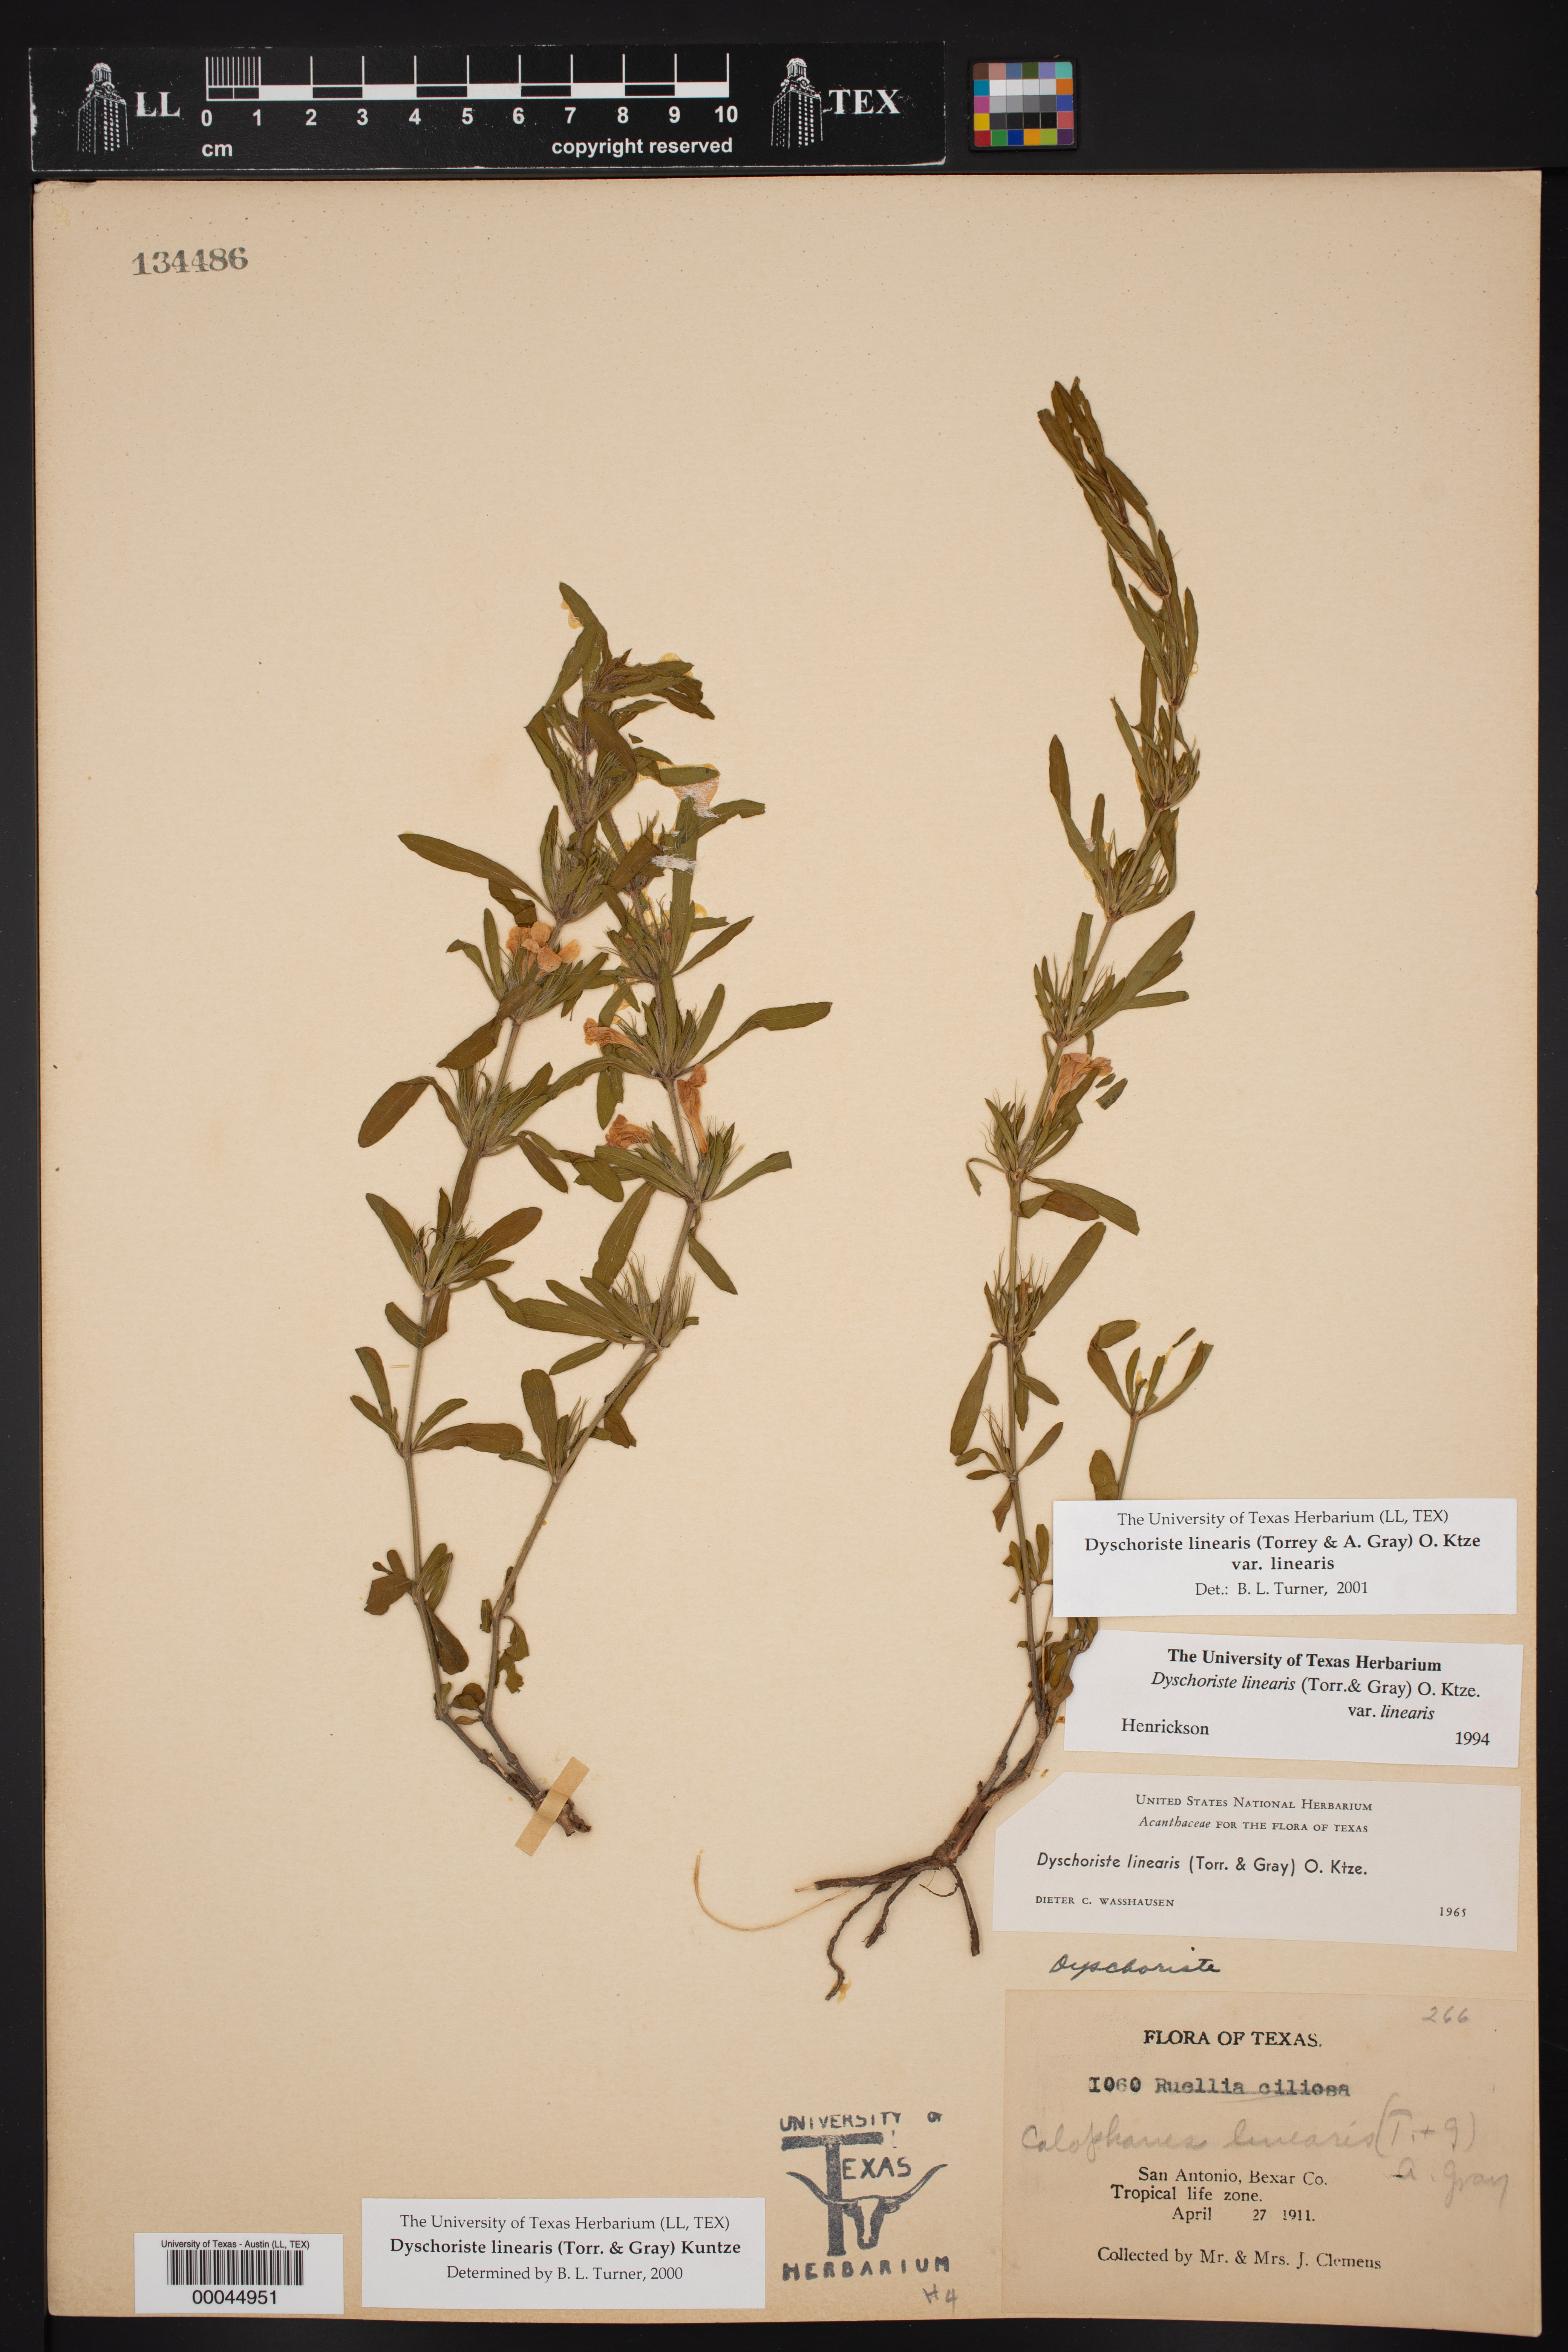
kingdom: Plantae
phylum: Tracheophyta
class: Magnoliopsida
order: Lamiales
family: Acanthaceae
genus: Dyschoriste
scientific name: Dyschoriste linearis
